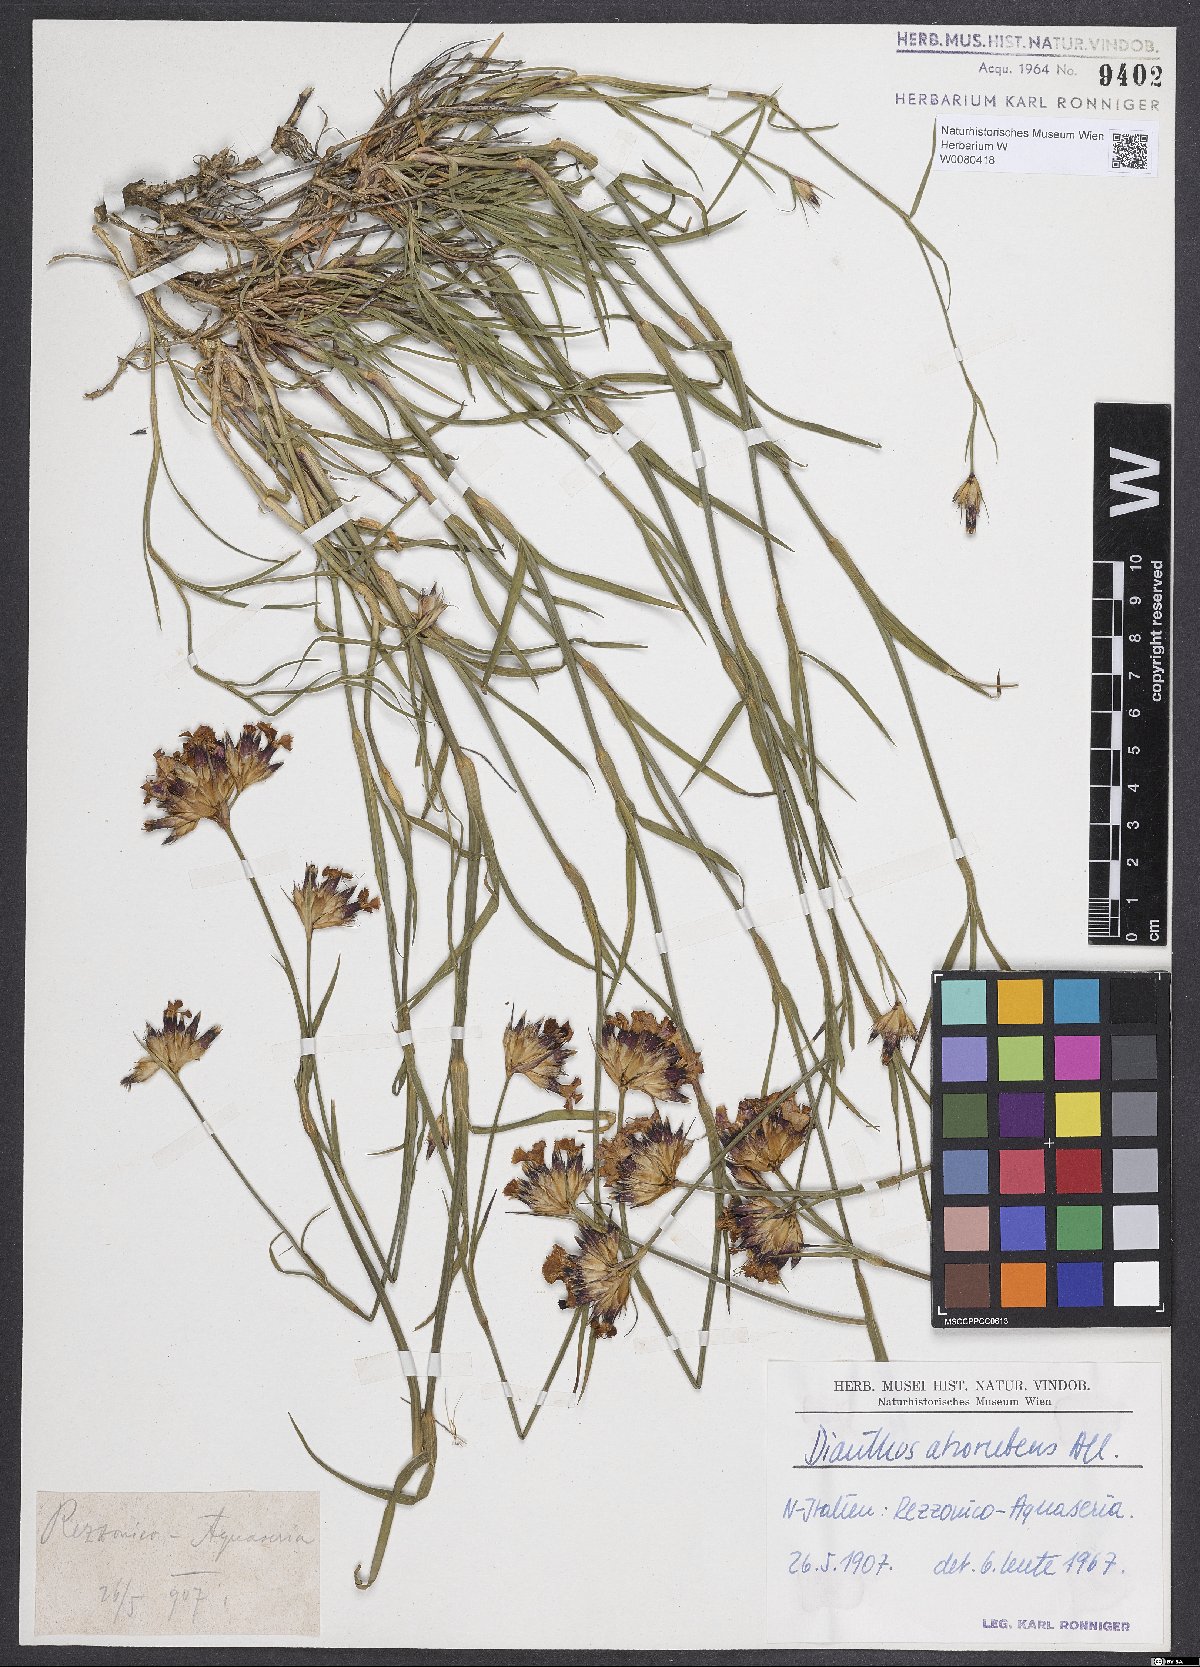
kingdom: Plantae
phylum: Tracheophyta
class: Magnoliopsida
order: Caryophyllales
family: Caryophyllaceae
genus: Dianthus
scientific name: Dianthus carthusianorum
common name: Carthusian pink
